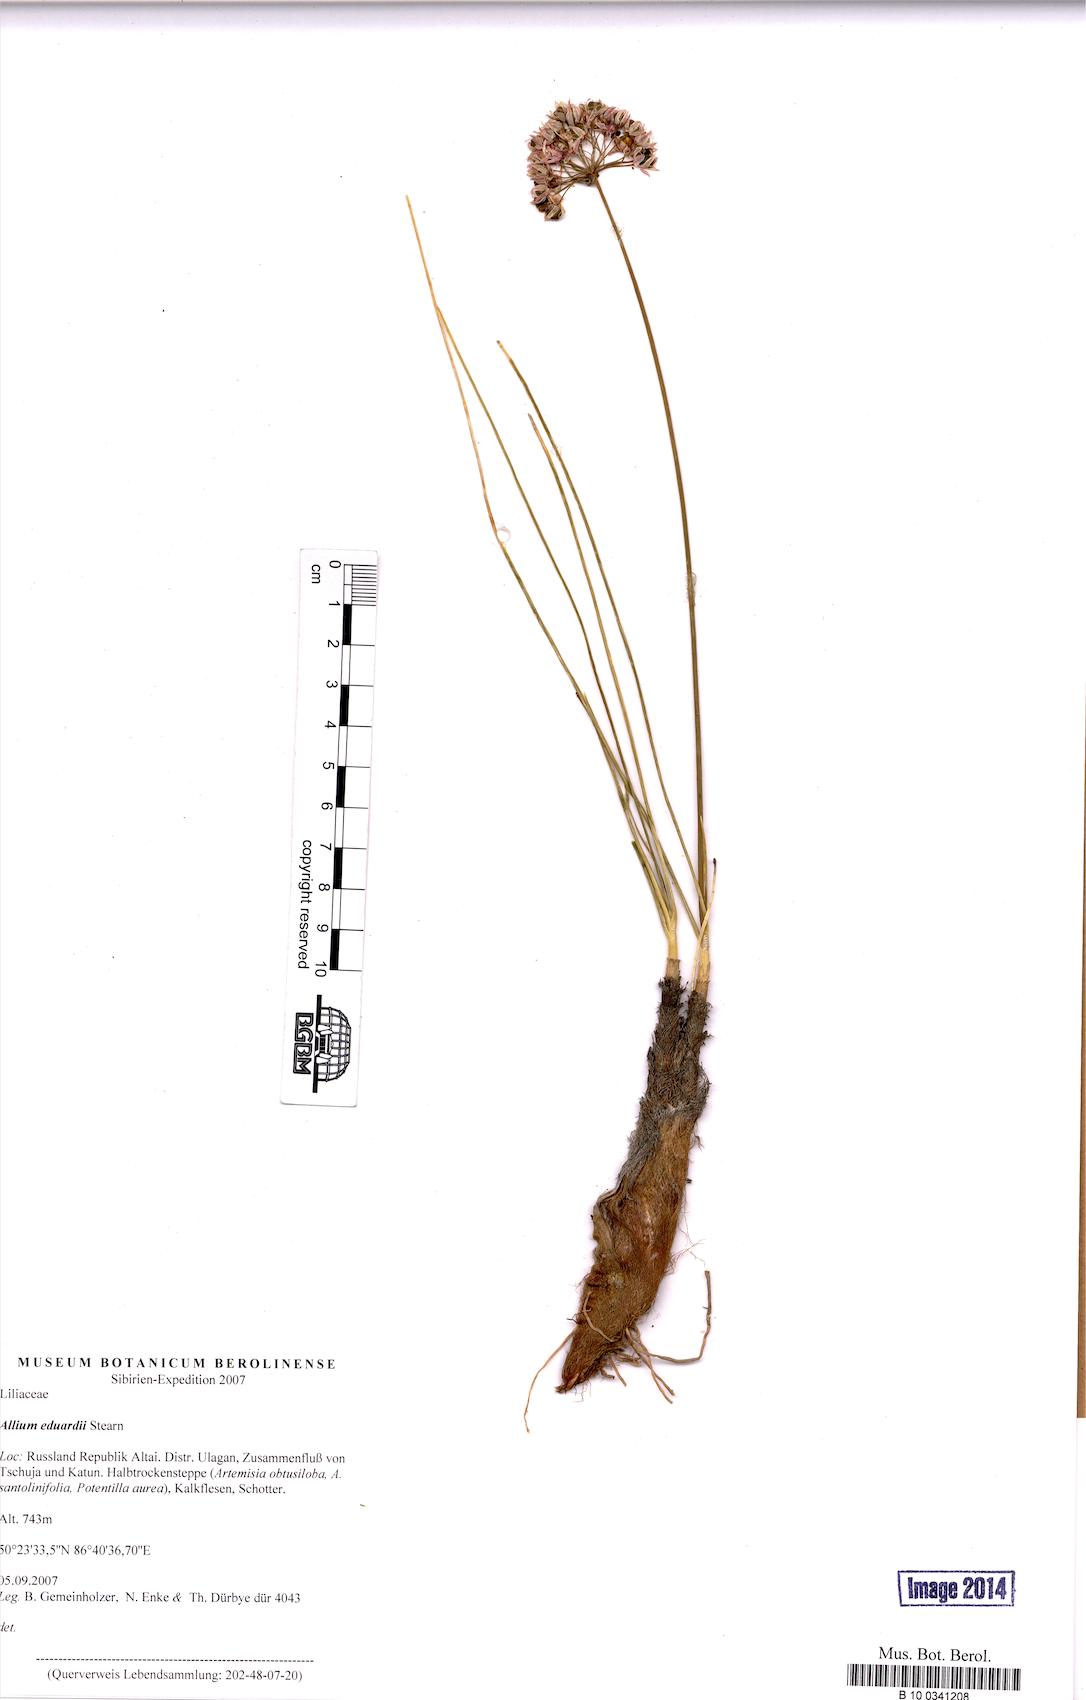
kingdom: Plantae
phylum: Tracheophyta
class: Liliopsida
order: Asparagales
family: Amaryllidaceae
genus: Allium
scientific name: Allium eduardi
